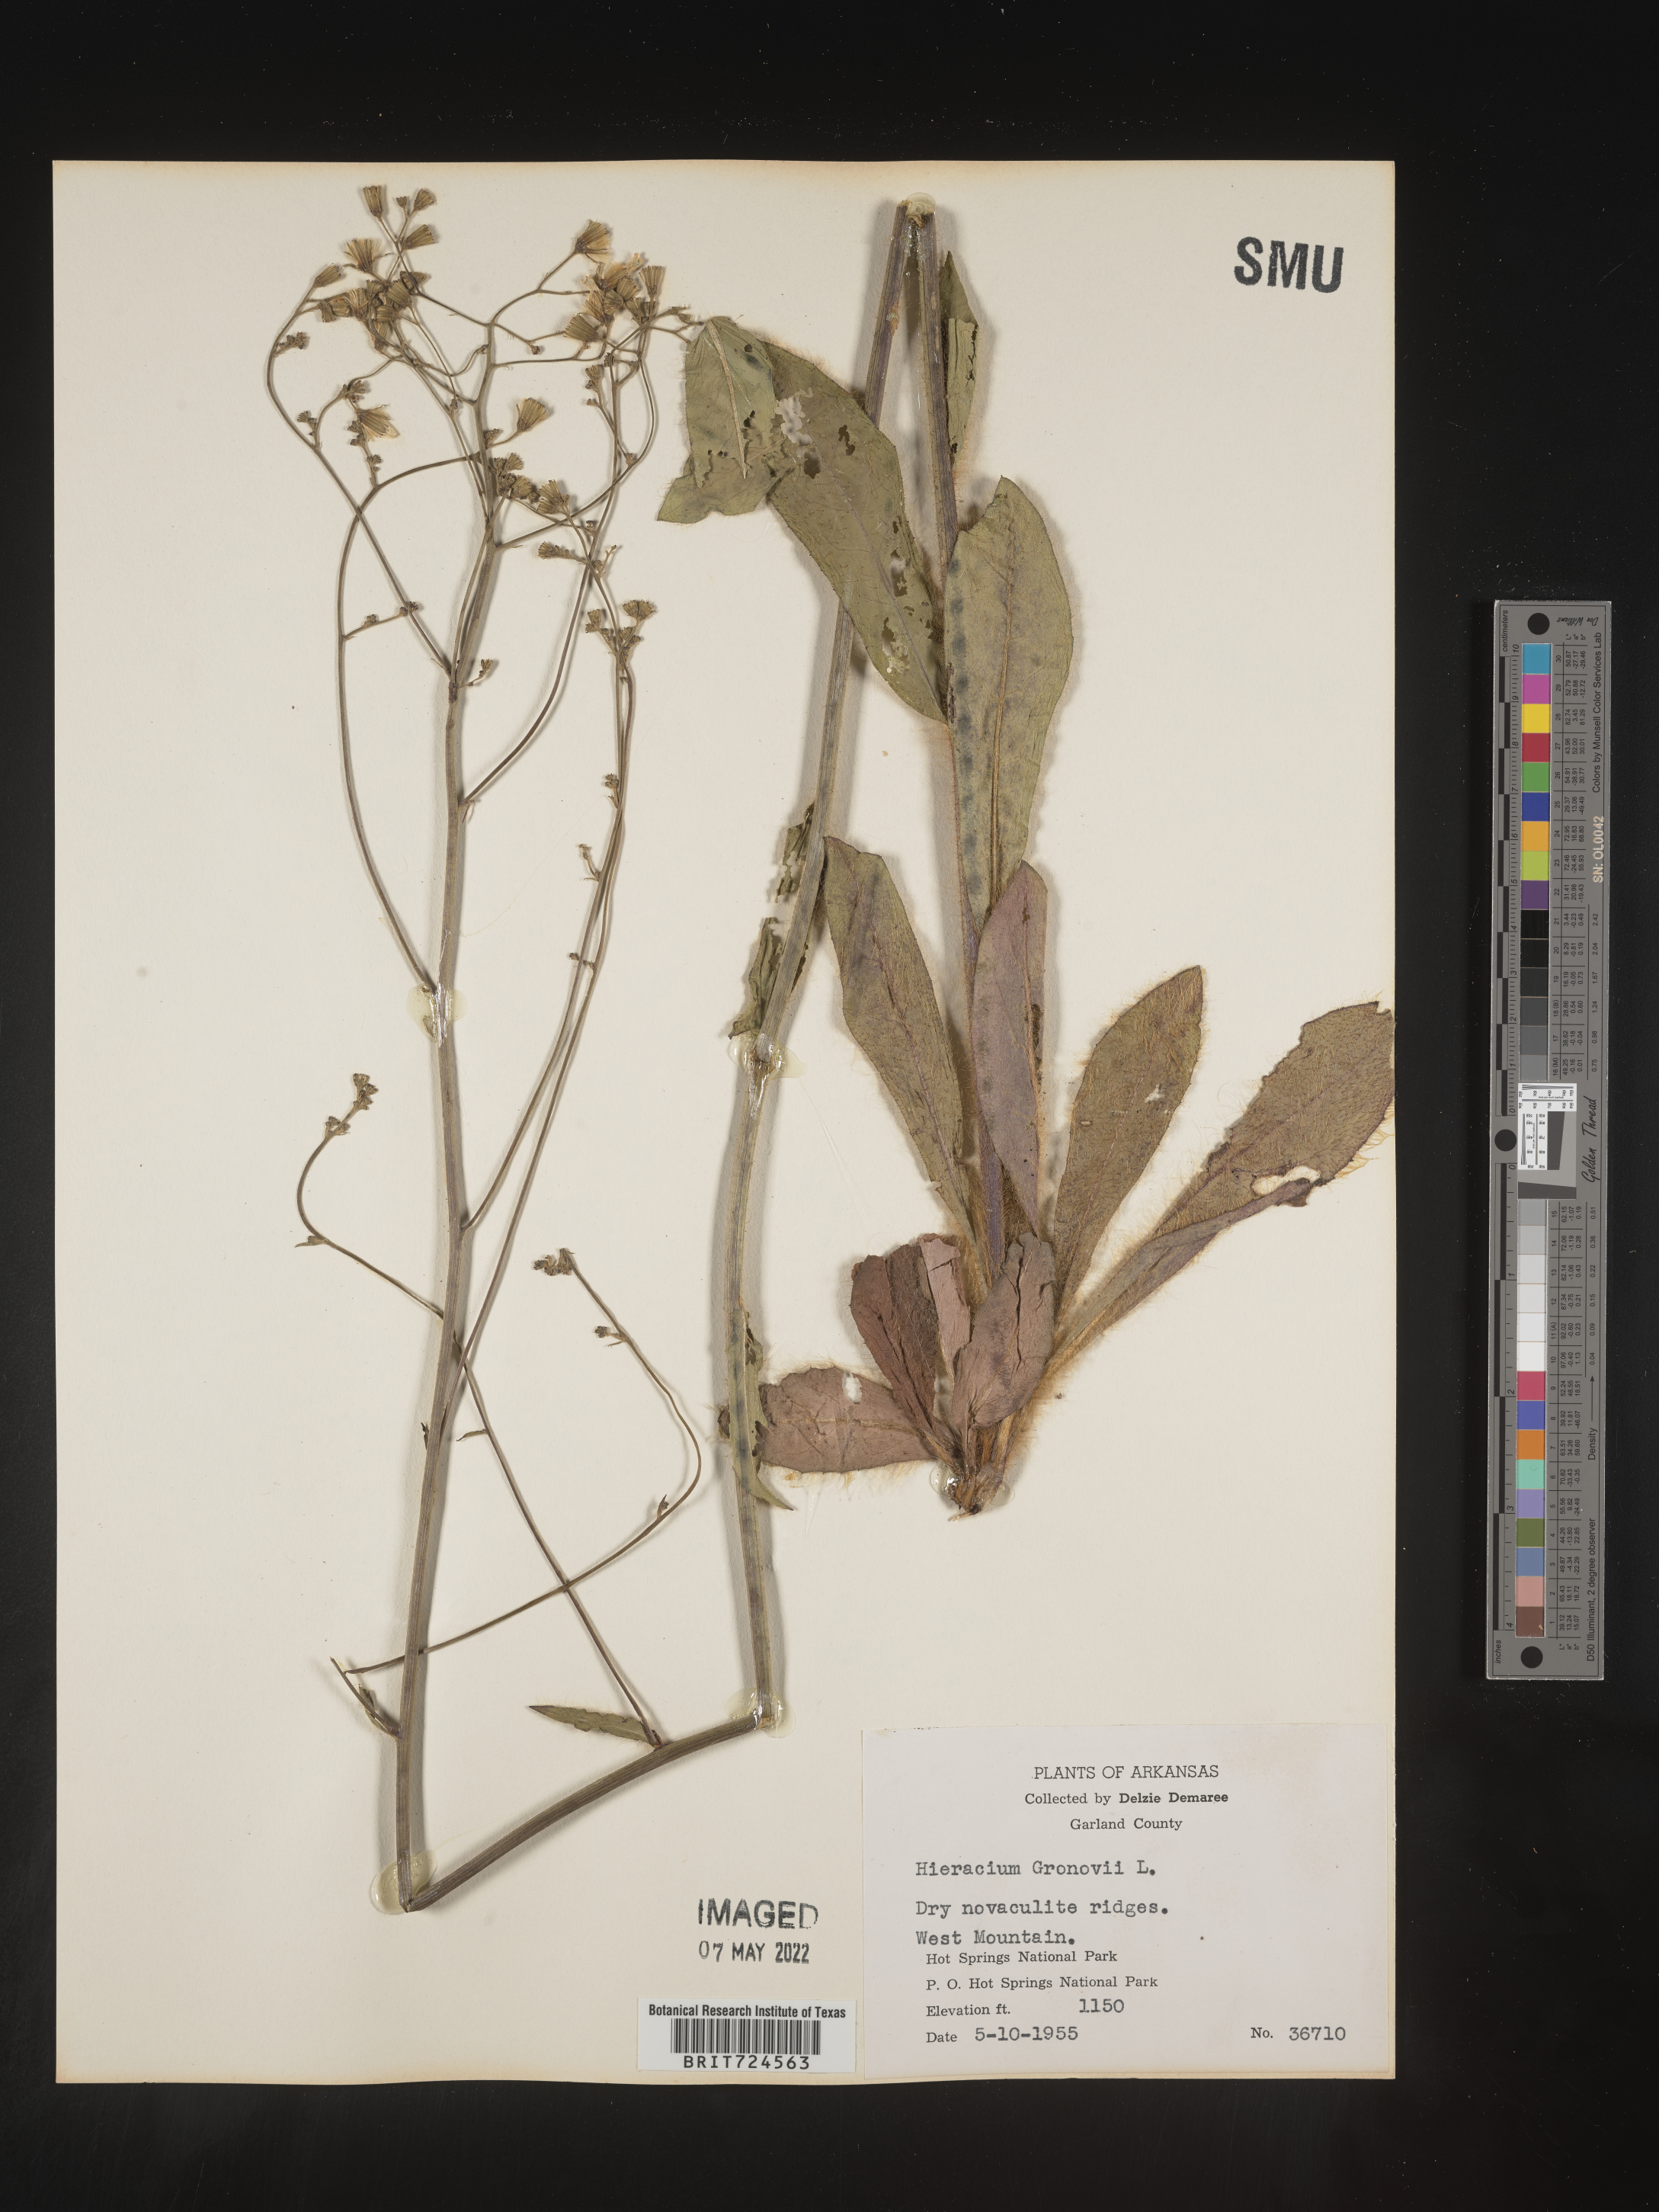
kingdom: Plantae
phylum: Tracheophyta
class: Magnoliopsida
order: Asterales
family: Asteraceae
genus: Hieracium
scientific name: Hieracium gronovii
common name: Beaked hawkweed
